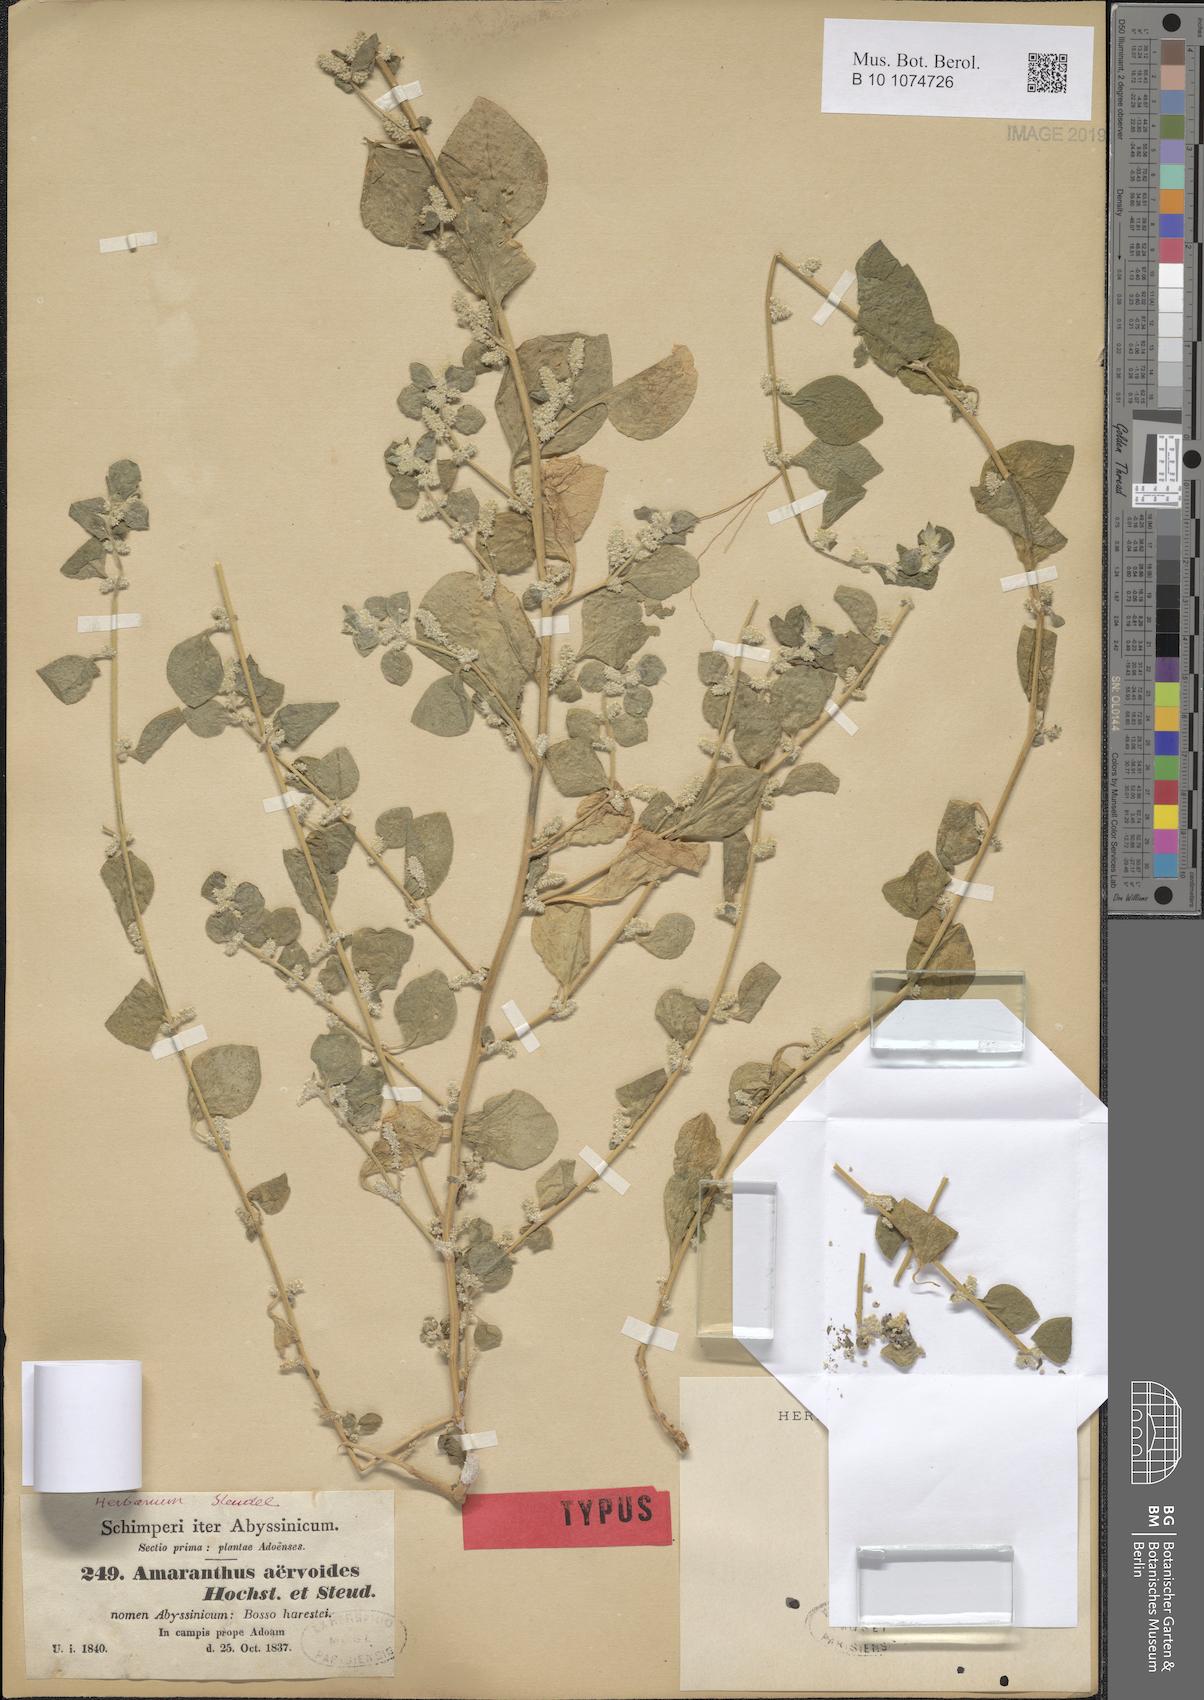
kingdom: Plantae
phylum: Tracheophyta
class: Magnoliopsida
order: Caryophyllales
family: Amaranthaceae
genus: Ouret
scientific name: Ouret lanata
